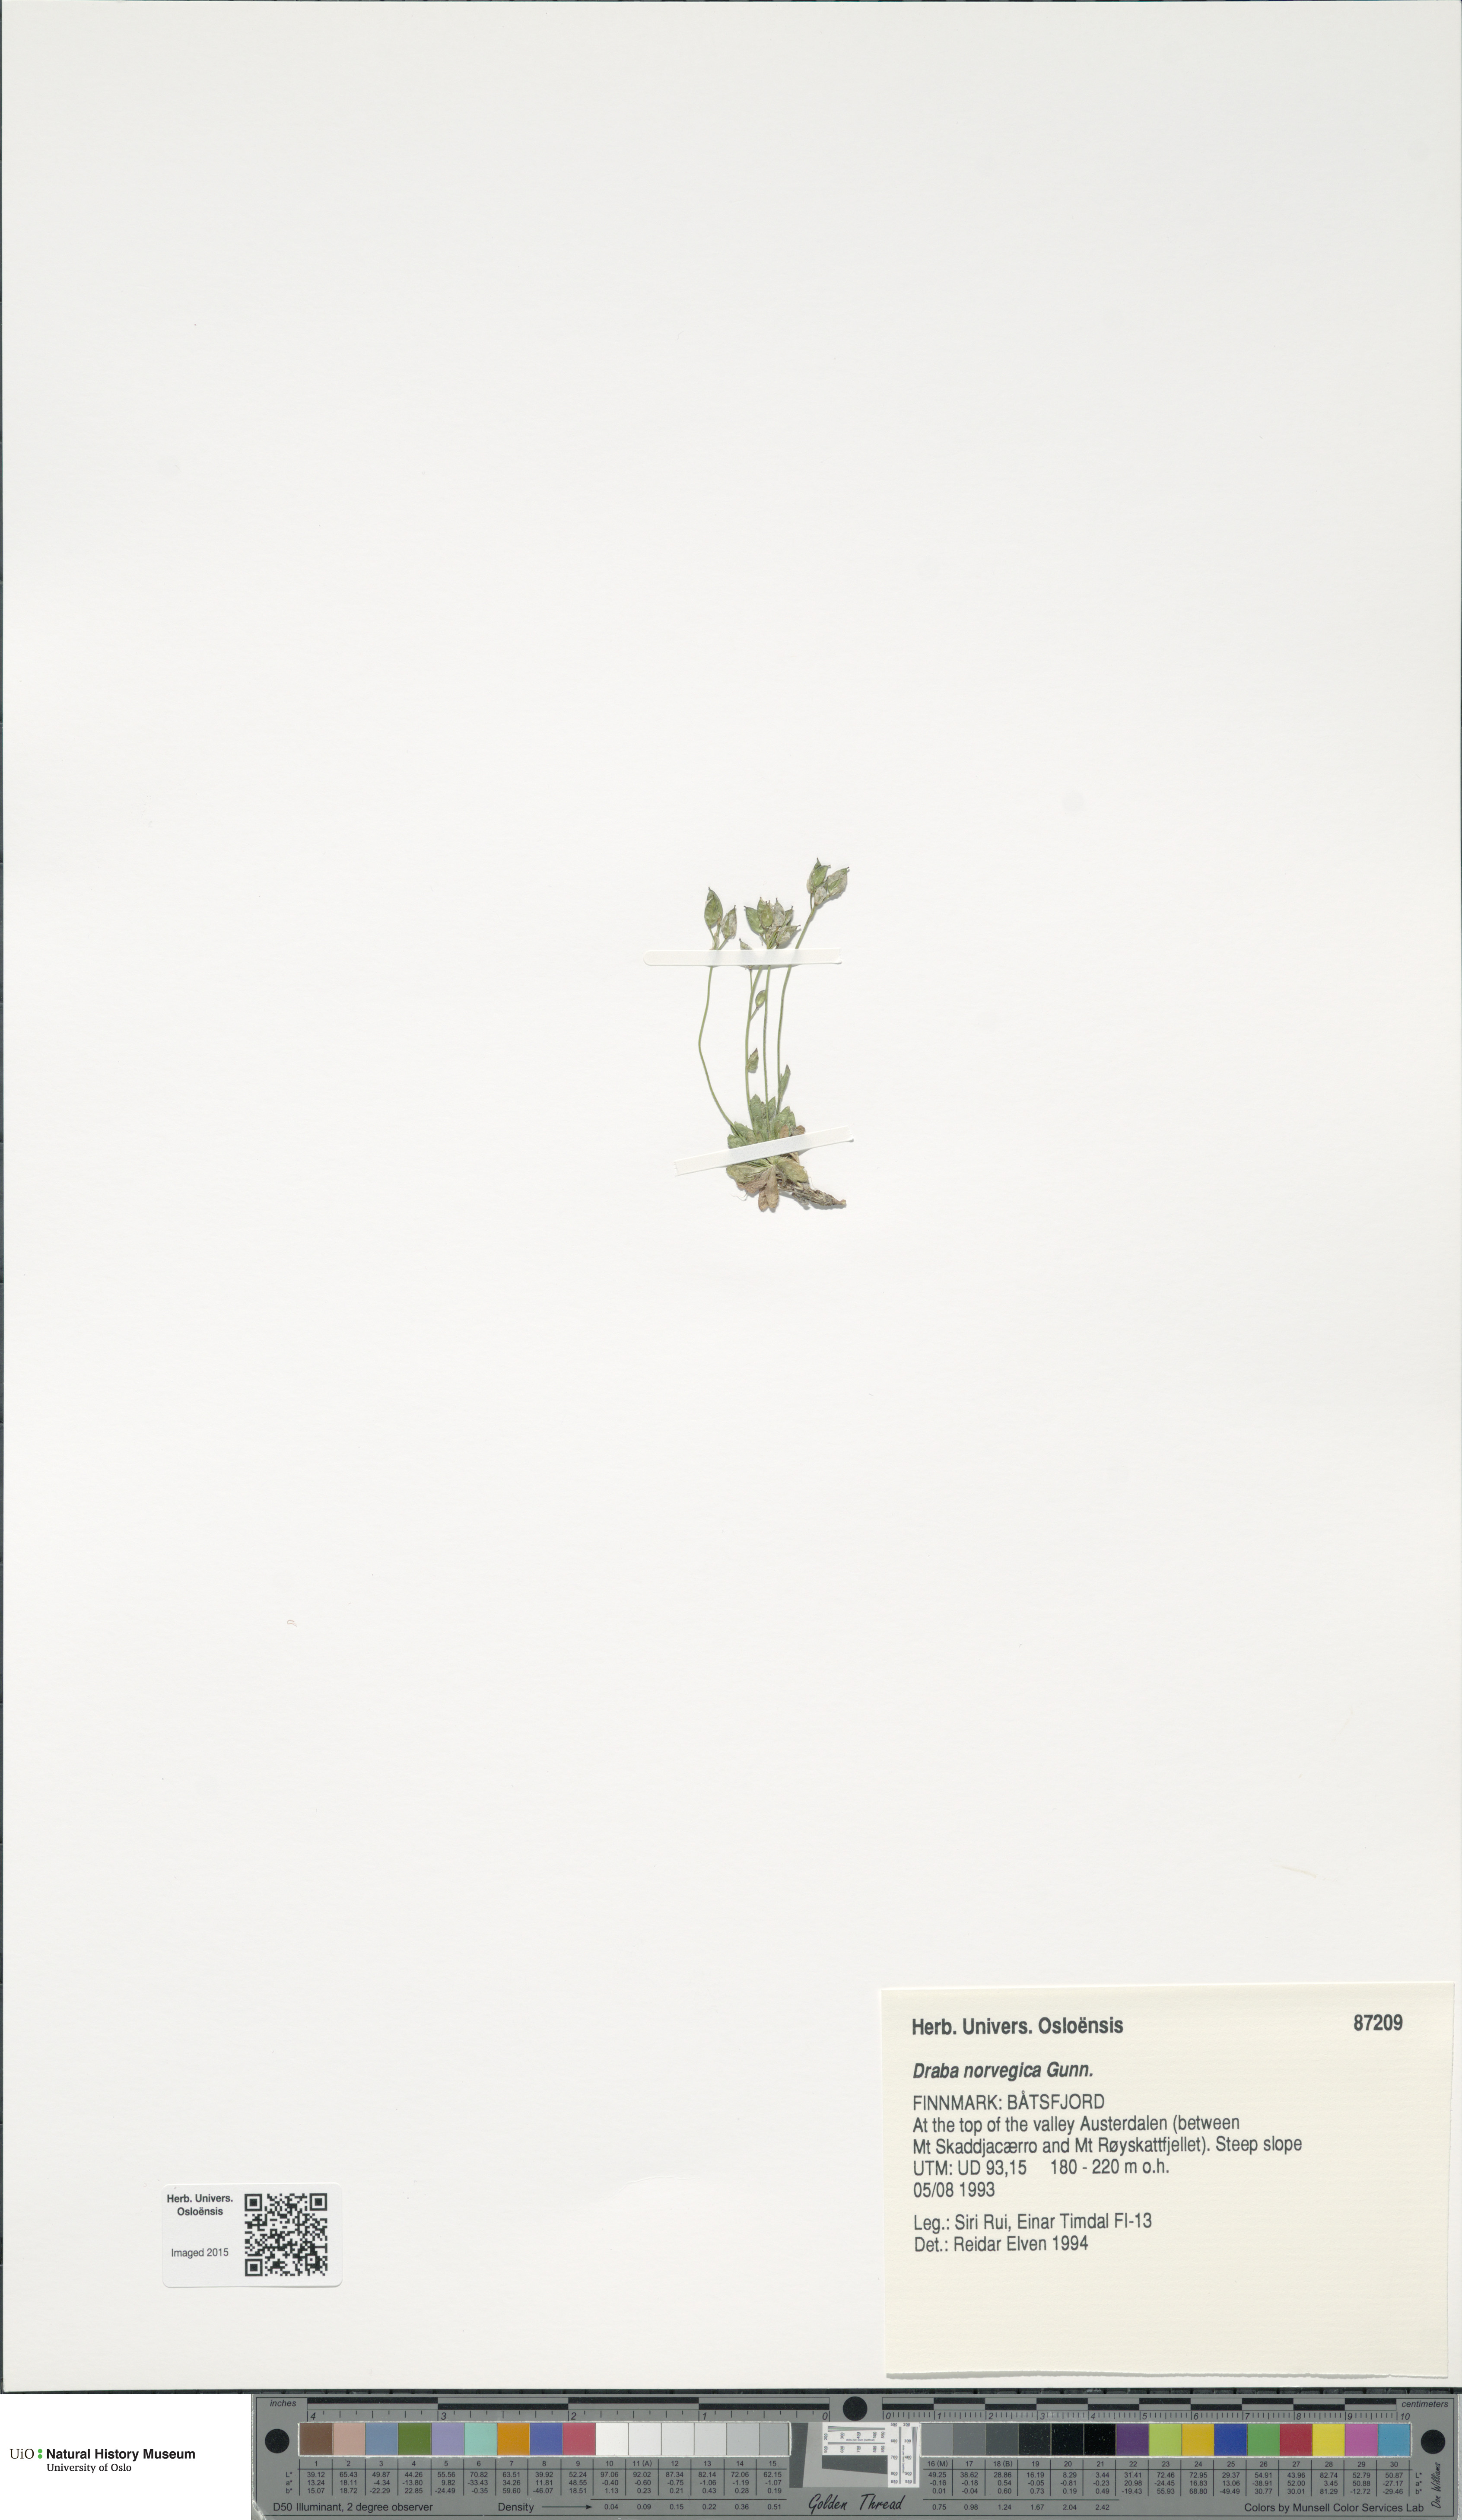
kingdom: Plantae
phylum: Tracheophyta
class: Magnoliopsida
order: Brassicales
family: Brassicaceae
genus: Draba
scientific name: Draba norvegica
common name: Rock whitlowgrass
